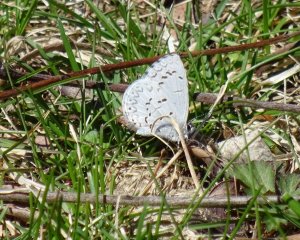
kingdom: Animalia
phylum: Arthropoda
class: Insecta
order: Lepidoptera
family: Lycaenidae
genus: Celastrina
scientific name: Celastrina
